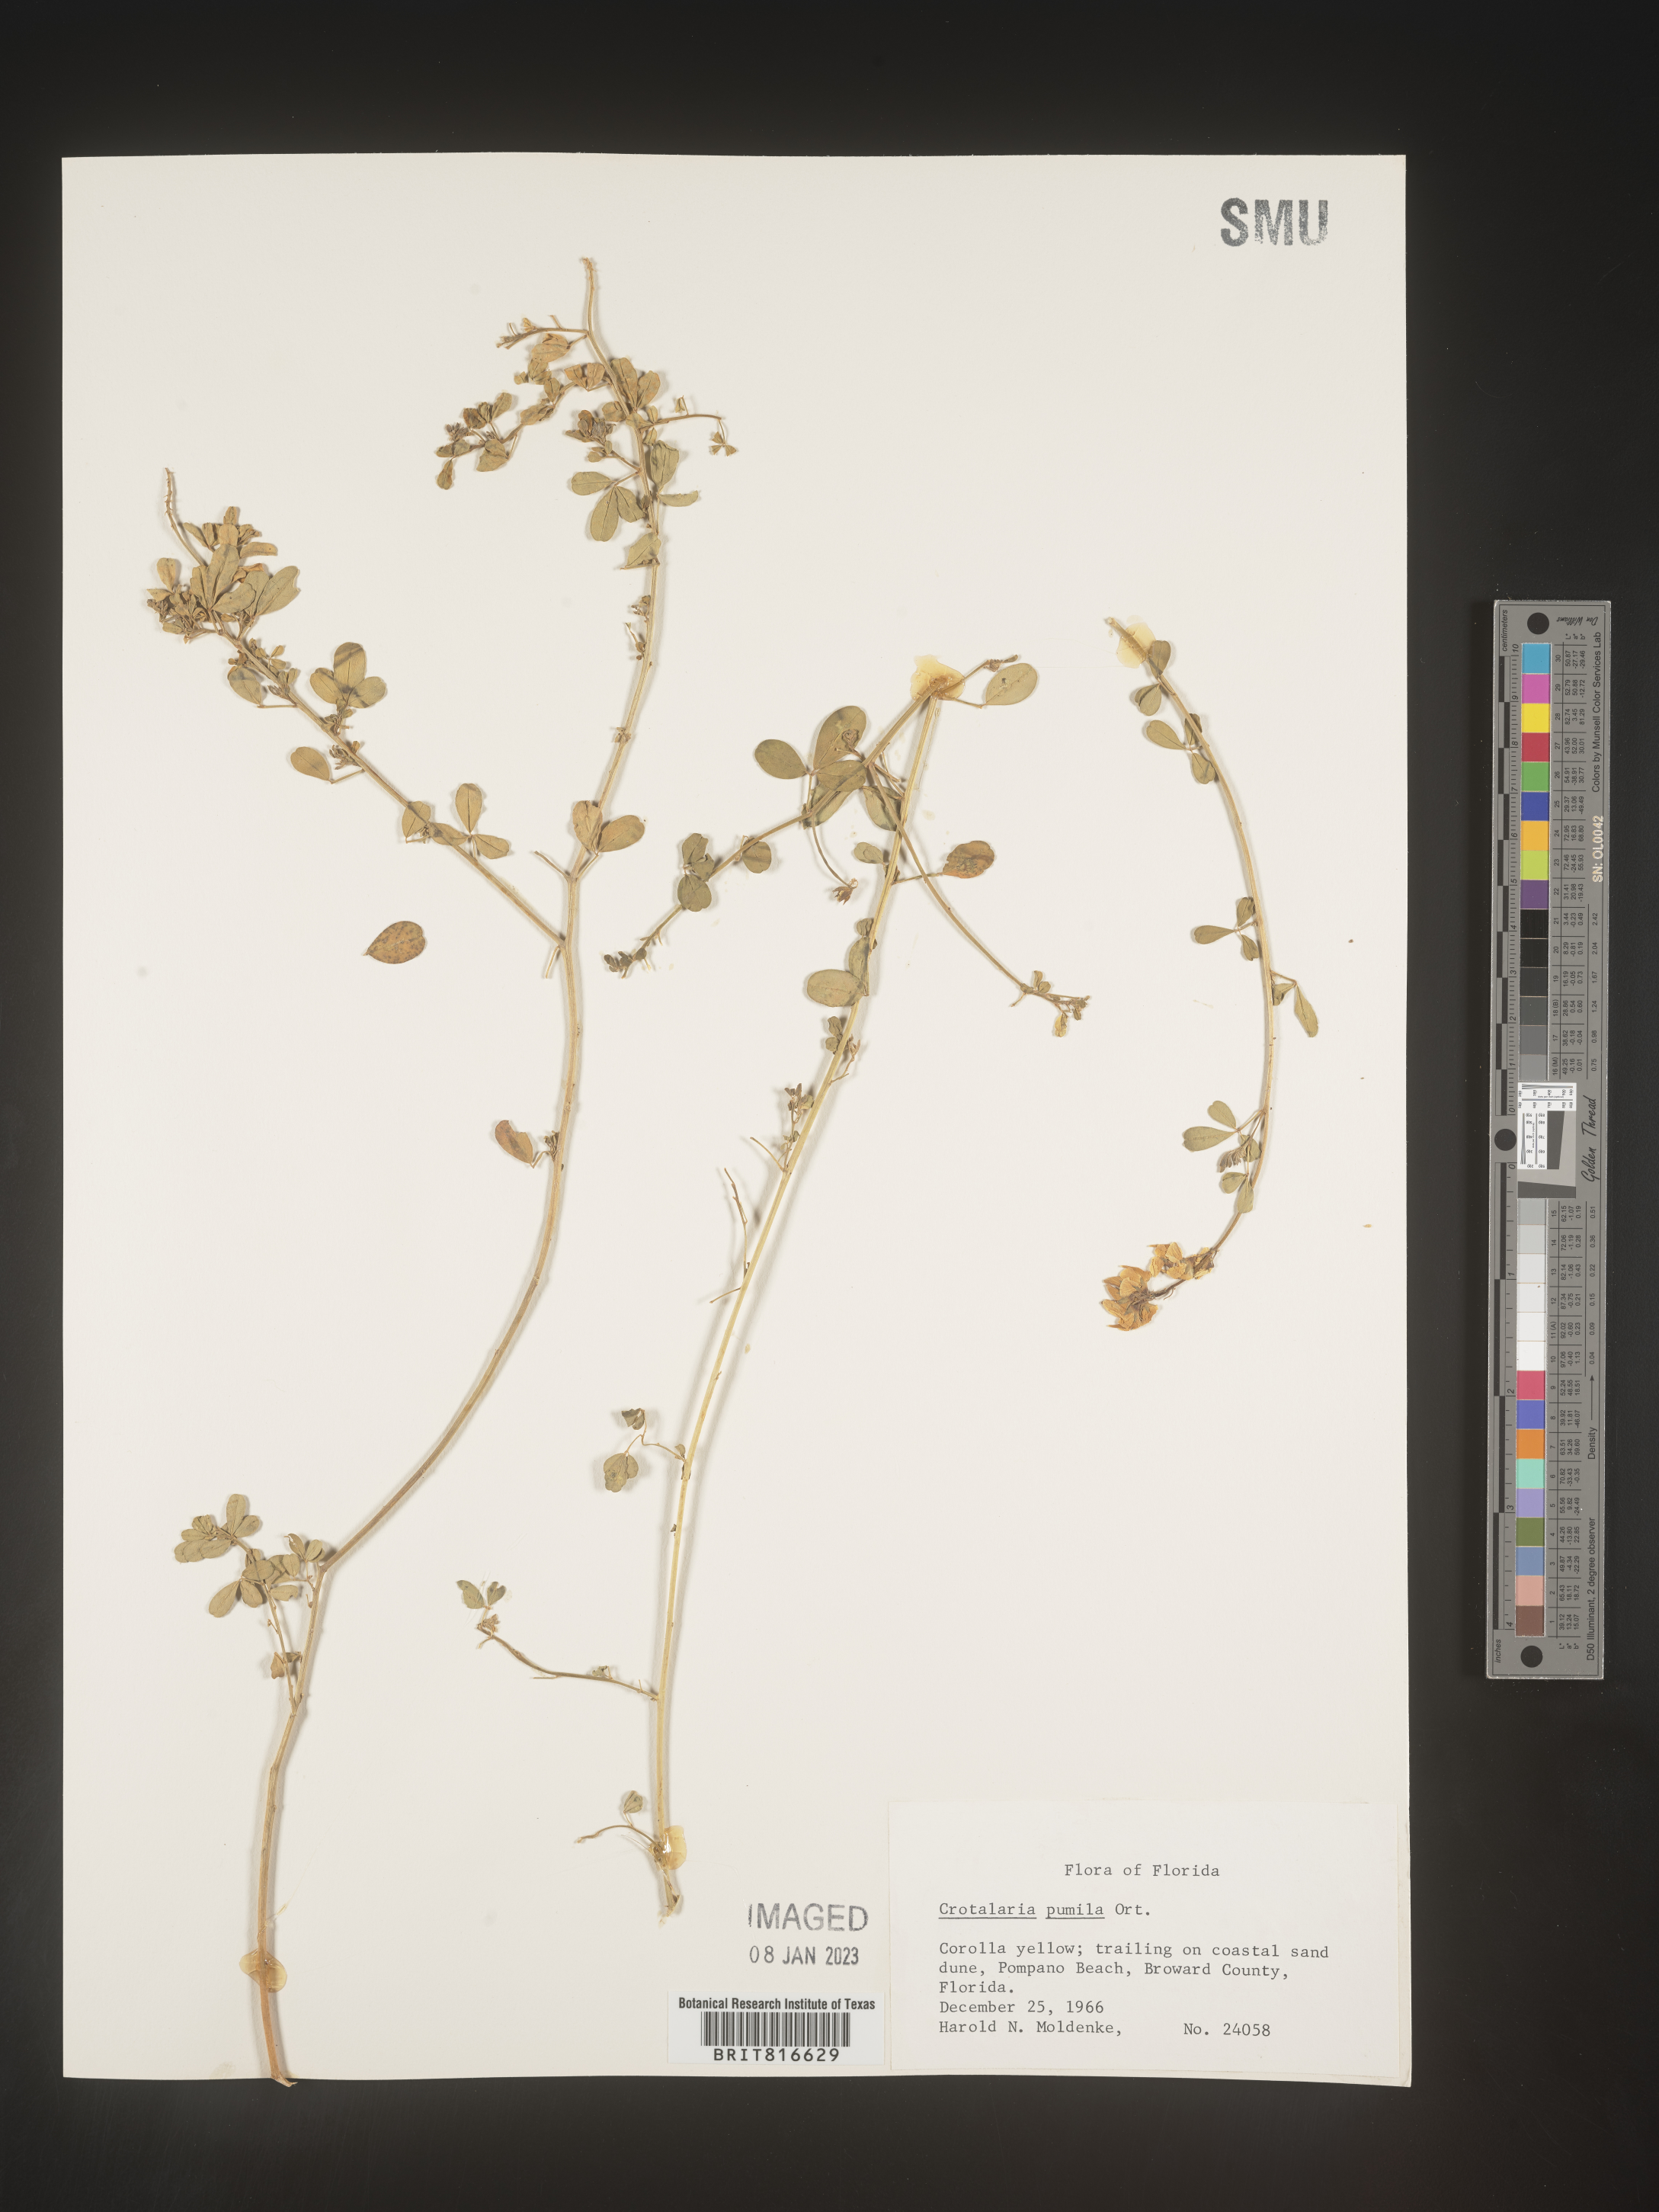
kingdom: Plantae
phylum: Tracheophyta
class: Magnoliopsida
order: Fabales
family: Fabaceae
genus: Crotalaria
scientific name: Crotalaria pumila
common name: Low rattlebox
